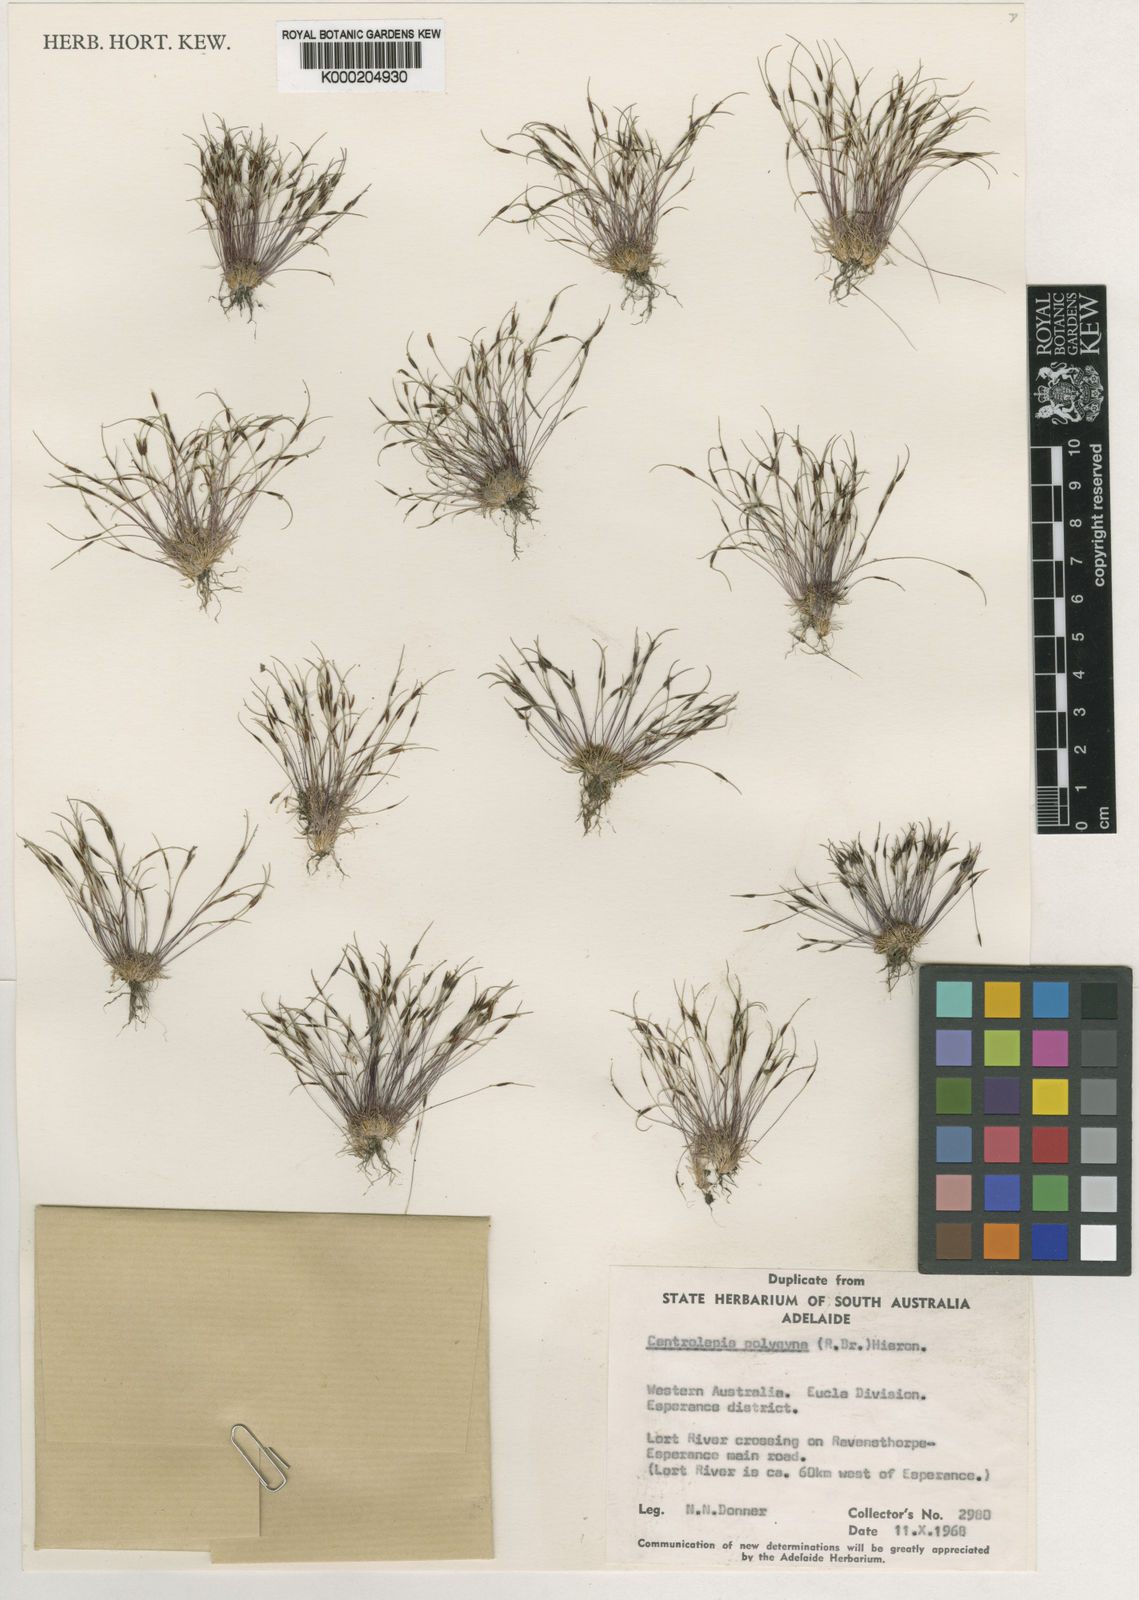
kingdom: Plantae
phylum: Tracheophyta
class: Liliopsida
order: Poales
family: Restionaceae
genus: Centrolepis
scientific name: Centrolepis polygyna
